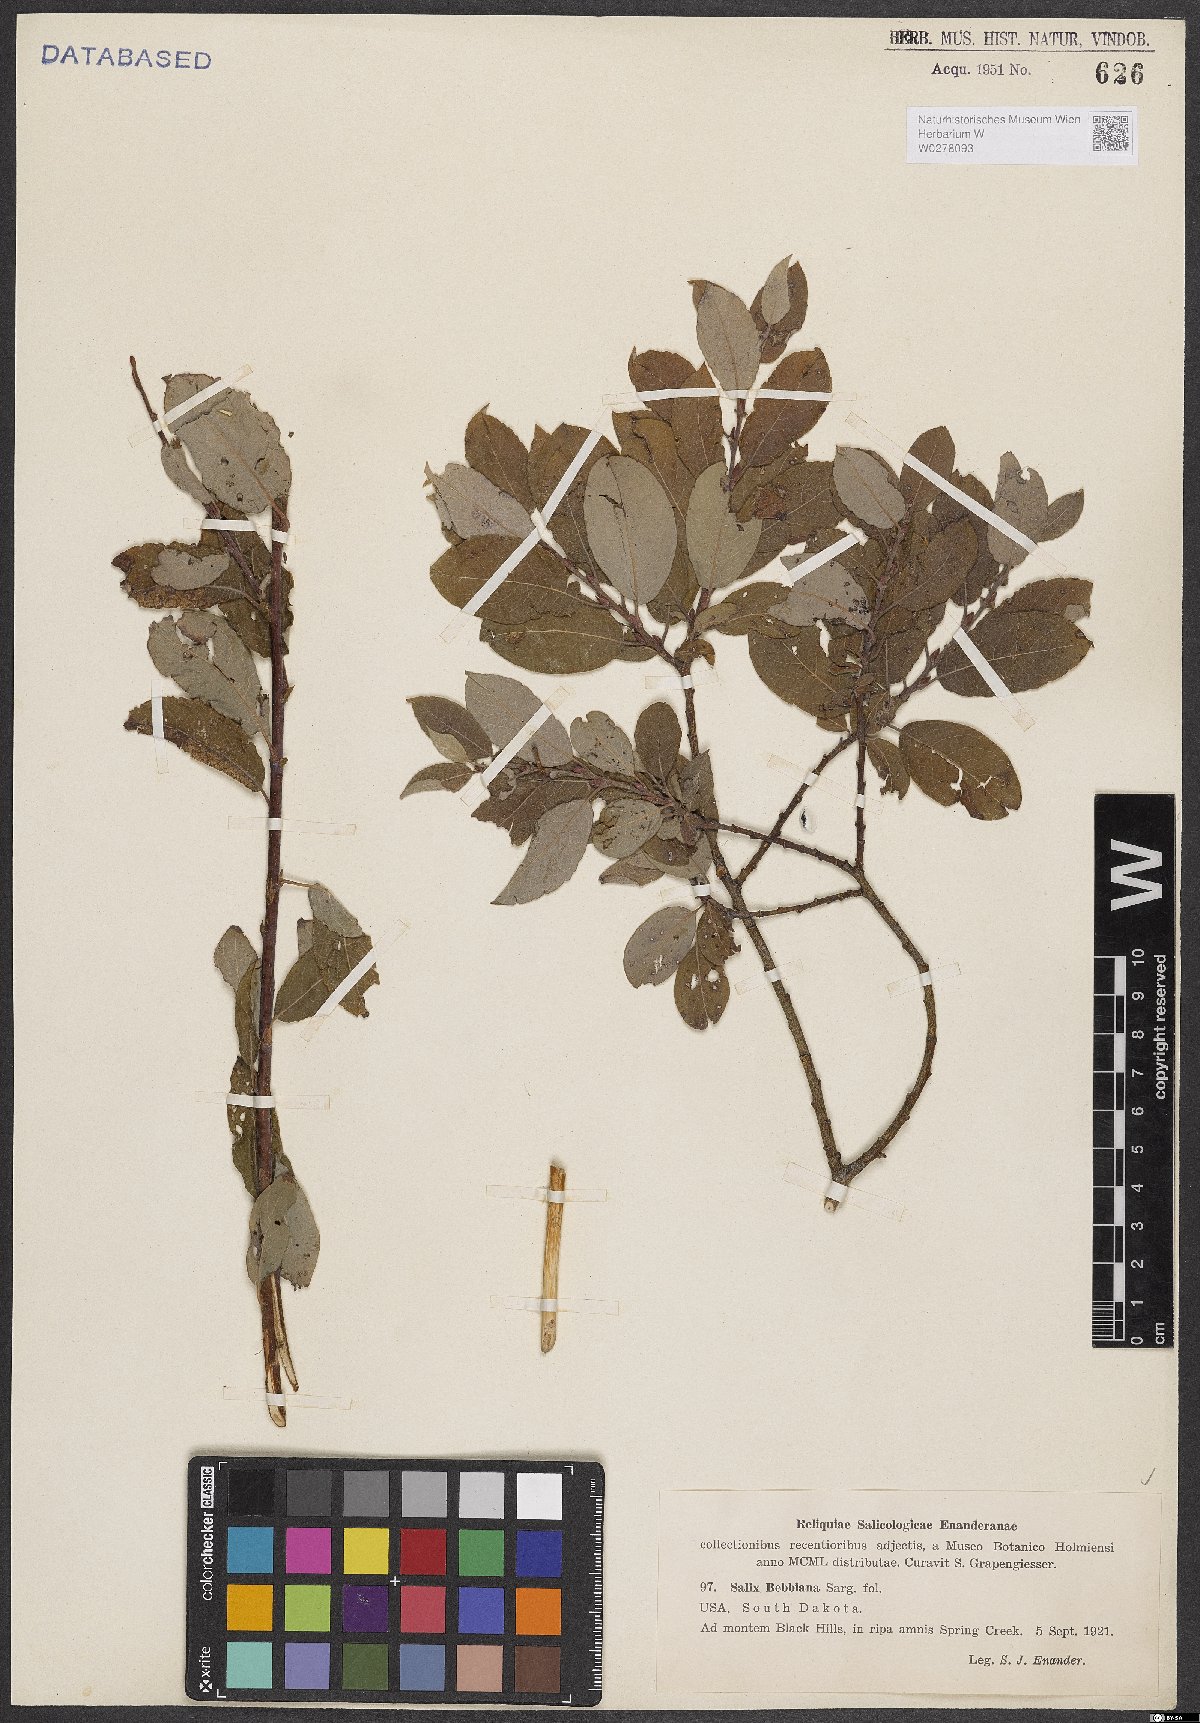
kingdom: Plantae
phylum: Tracheophyta
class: Magnoliopsida
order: Malpighiales
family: Salicaceae
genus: Salix
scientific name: Salix bebbiana
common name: Bebb's willow
